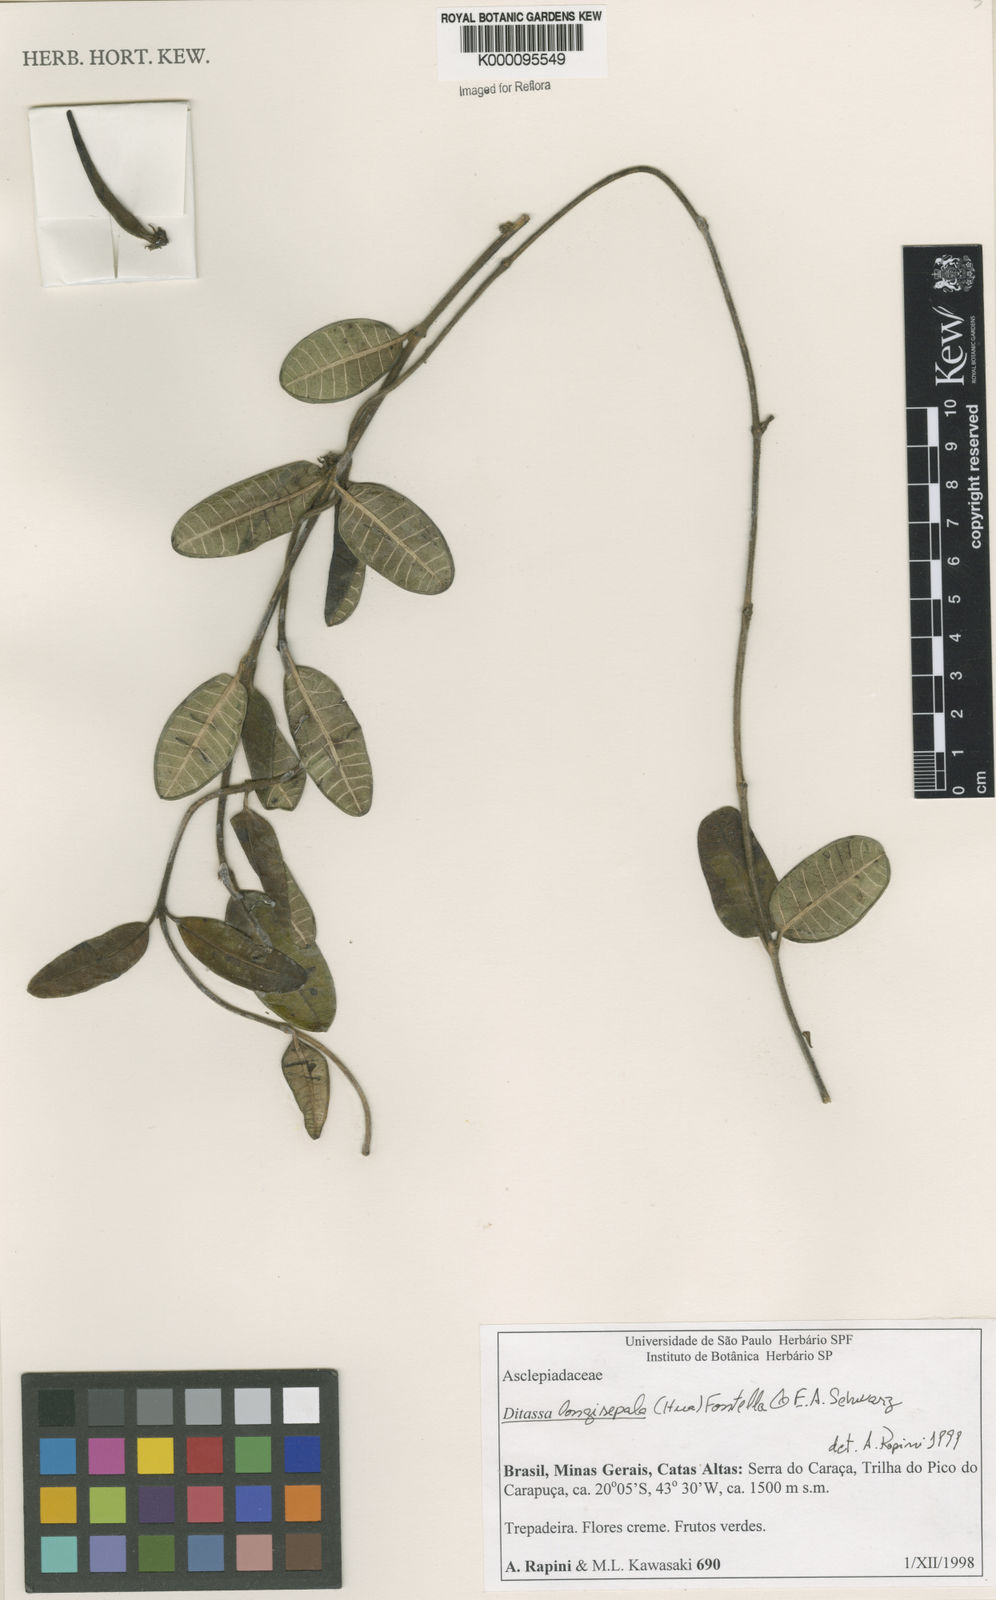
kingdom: Plantae
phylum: Tracheophyta
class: Magnoliopsida
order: Gentianales
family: Apocynaceae
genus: Ditassa
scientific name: Ditassa longisepala
